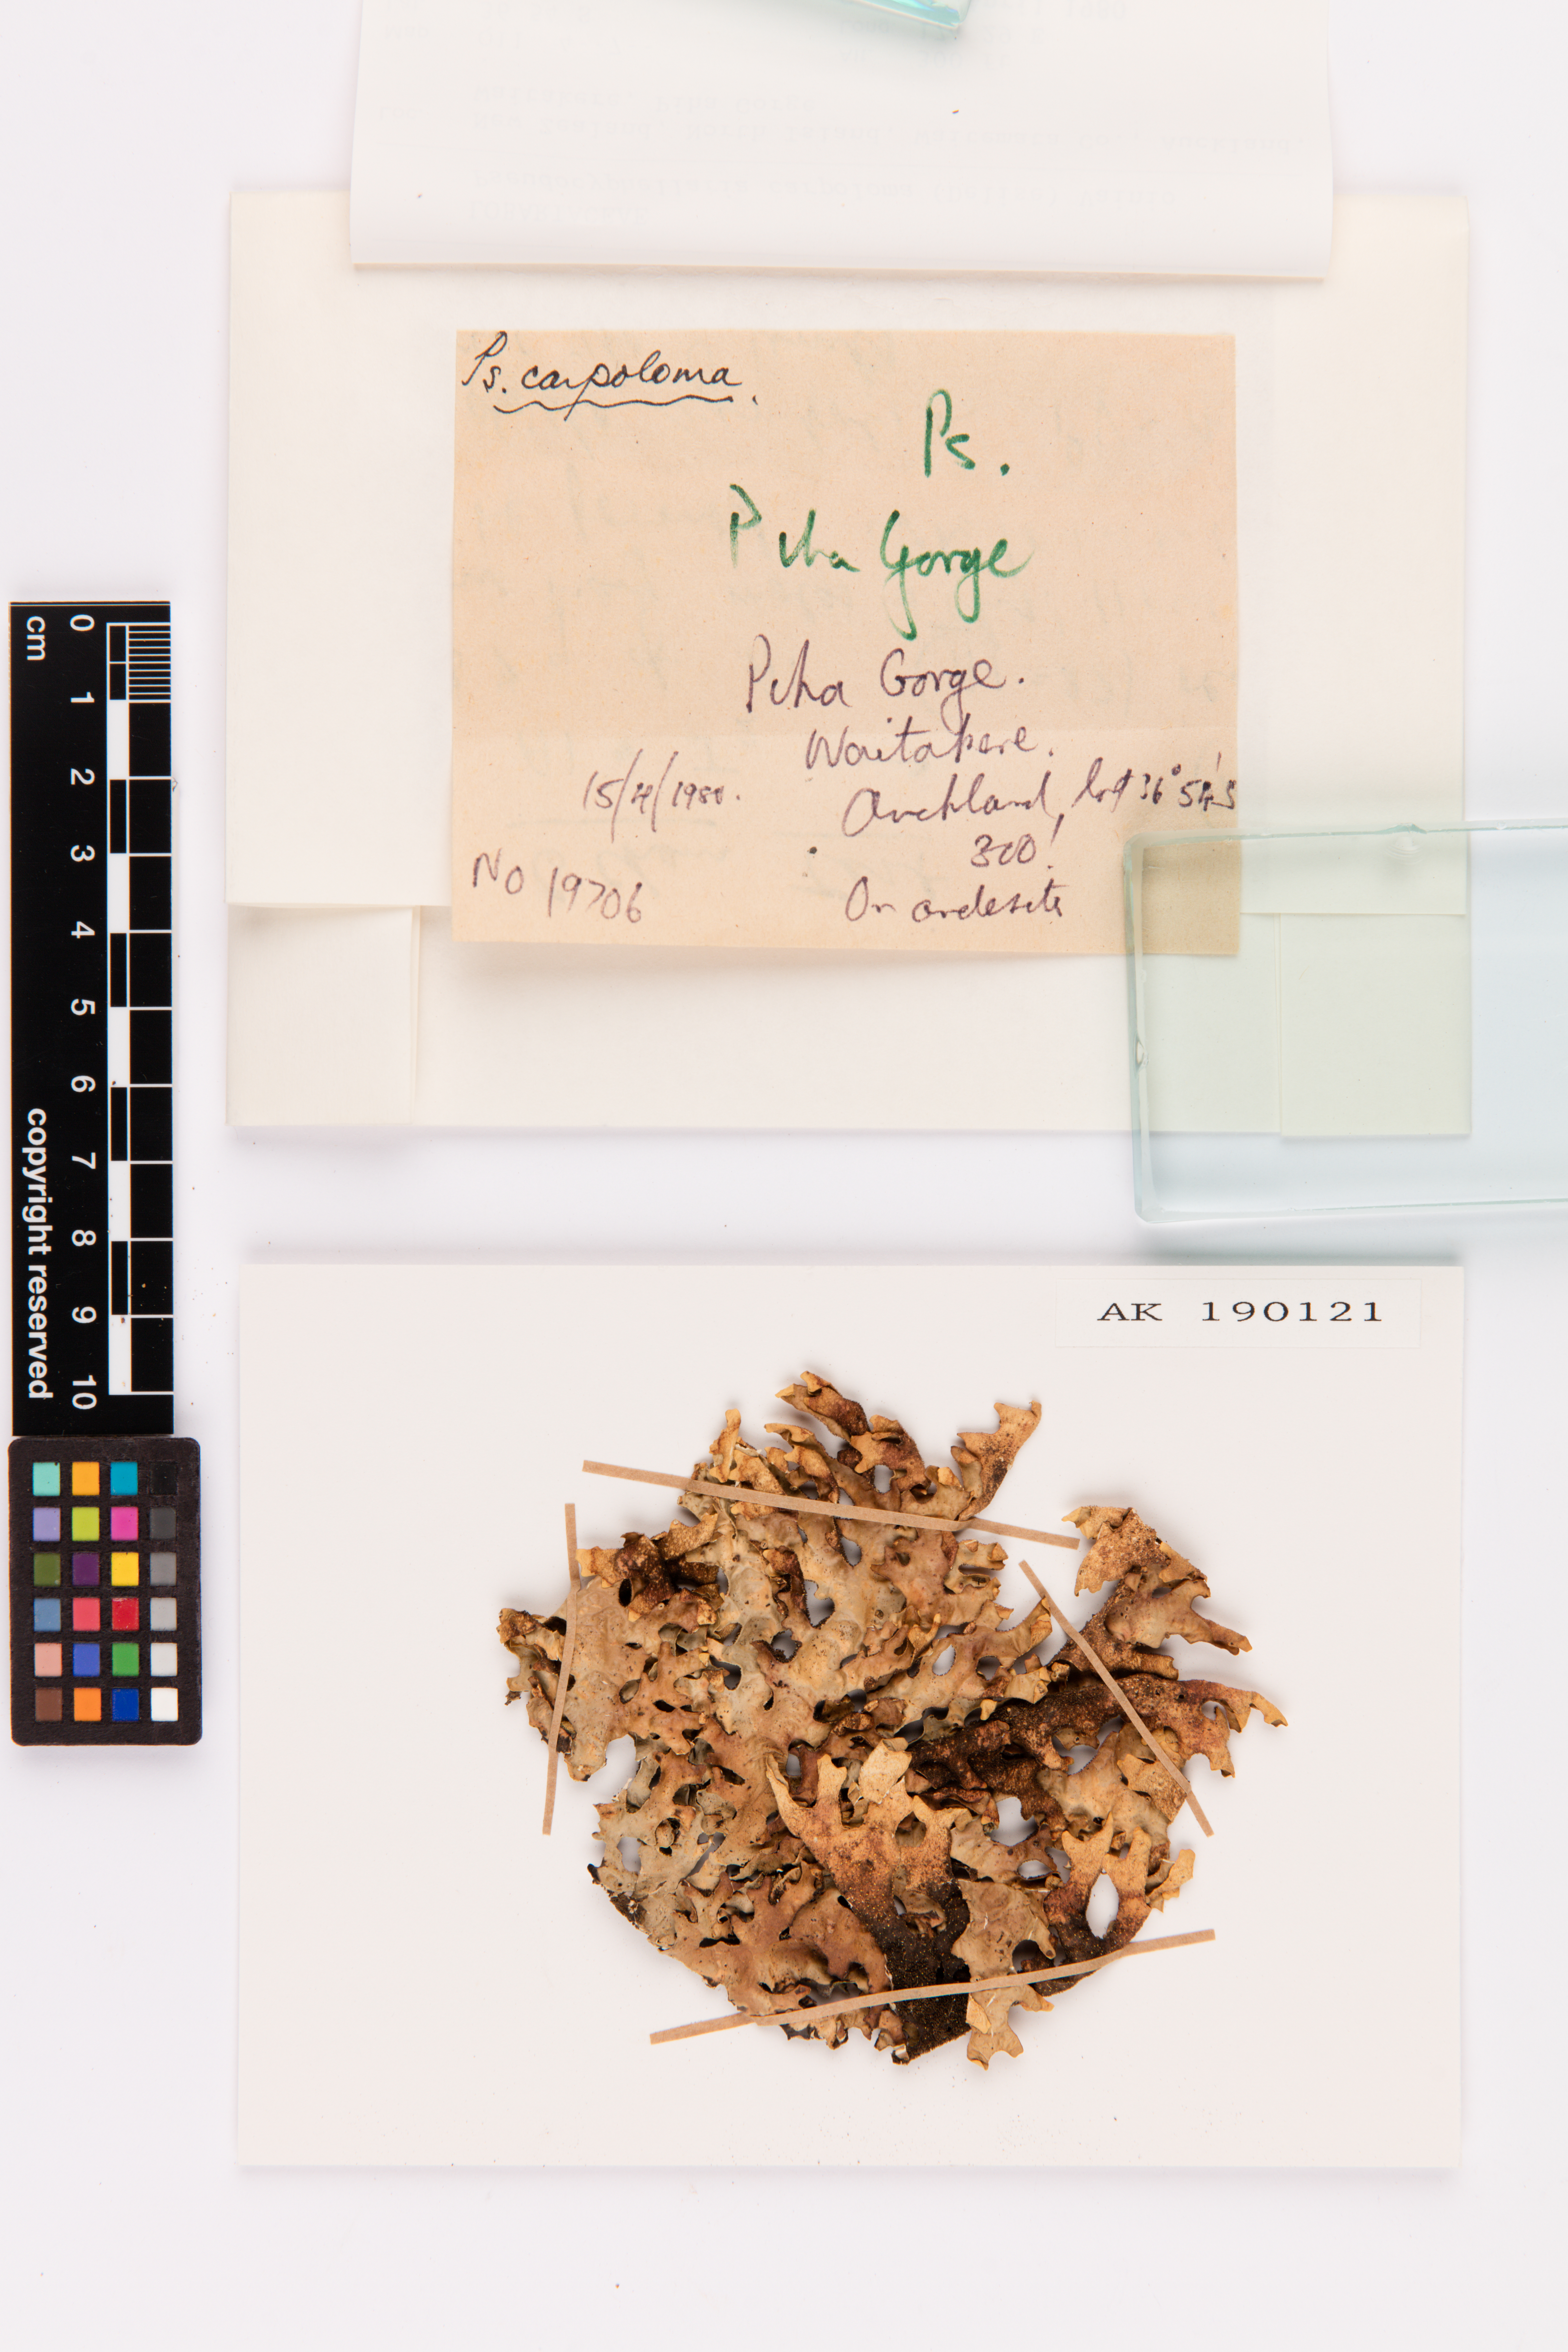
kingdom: Fungi
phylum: Ascomycota
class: Lecanoromycetes
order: Peltigerales
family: Lobariaceae
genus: Pseudocyphellaria
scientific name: Pseudocyphellaria carpoloma
